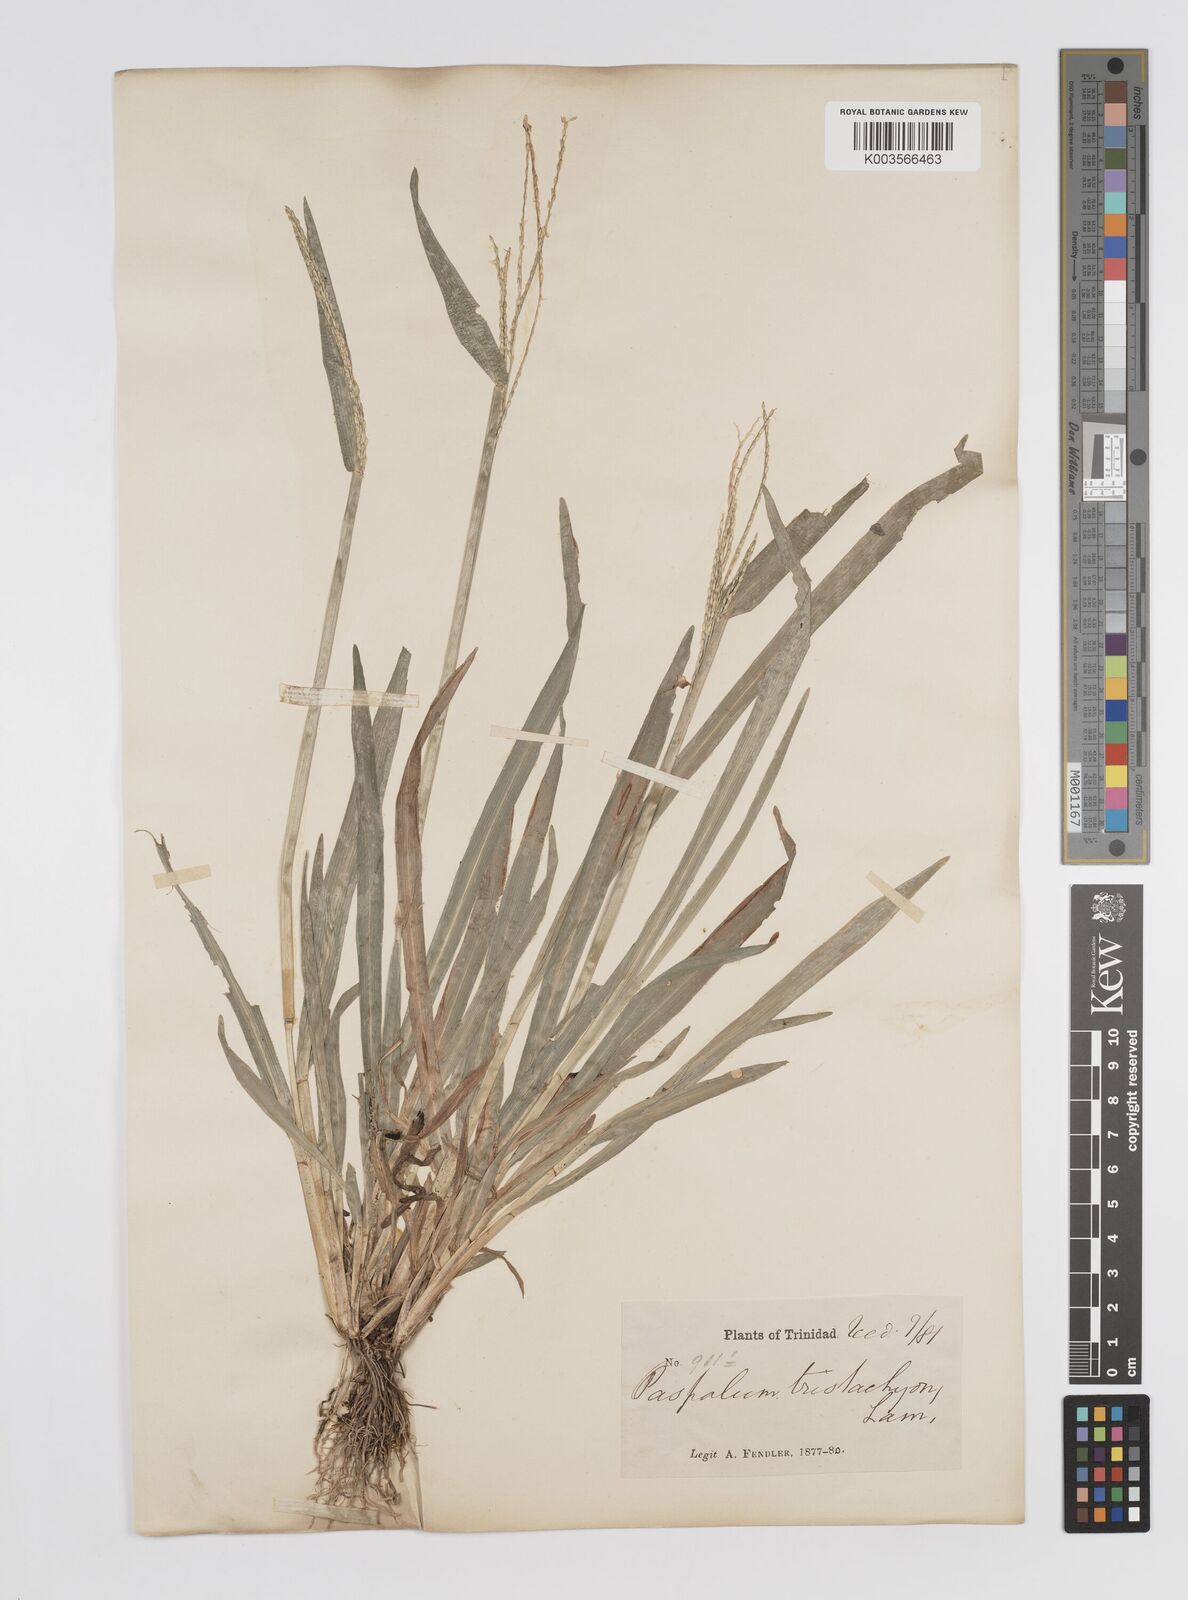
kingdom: Plantae
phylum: Tracheophyta
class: Liliopsida
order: Poales
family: Poaceae
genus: Axonopus
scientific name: Axonopus compressus
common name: American carpet grass
